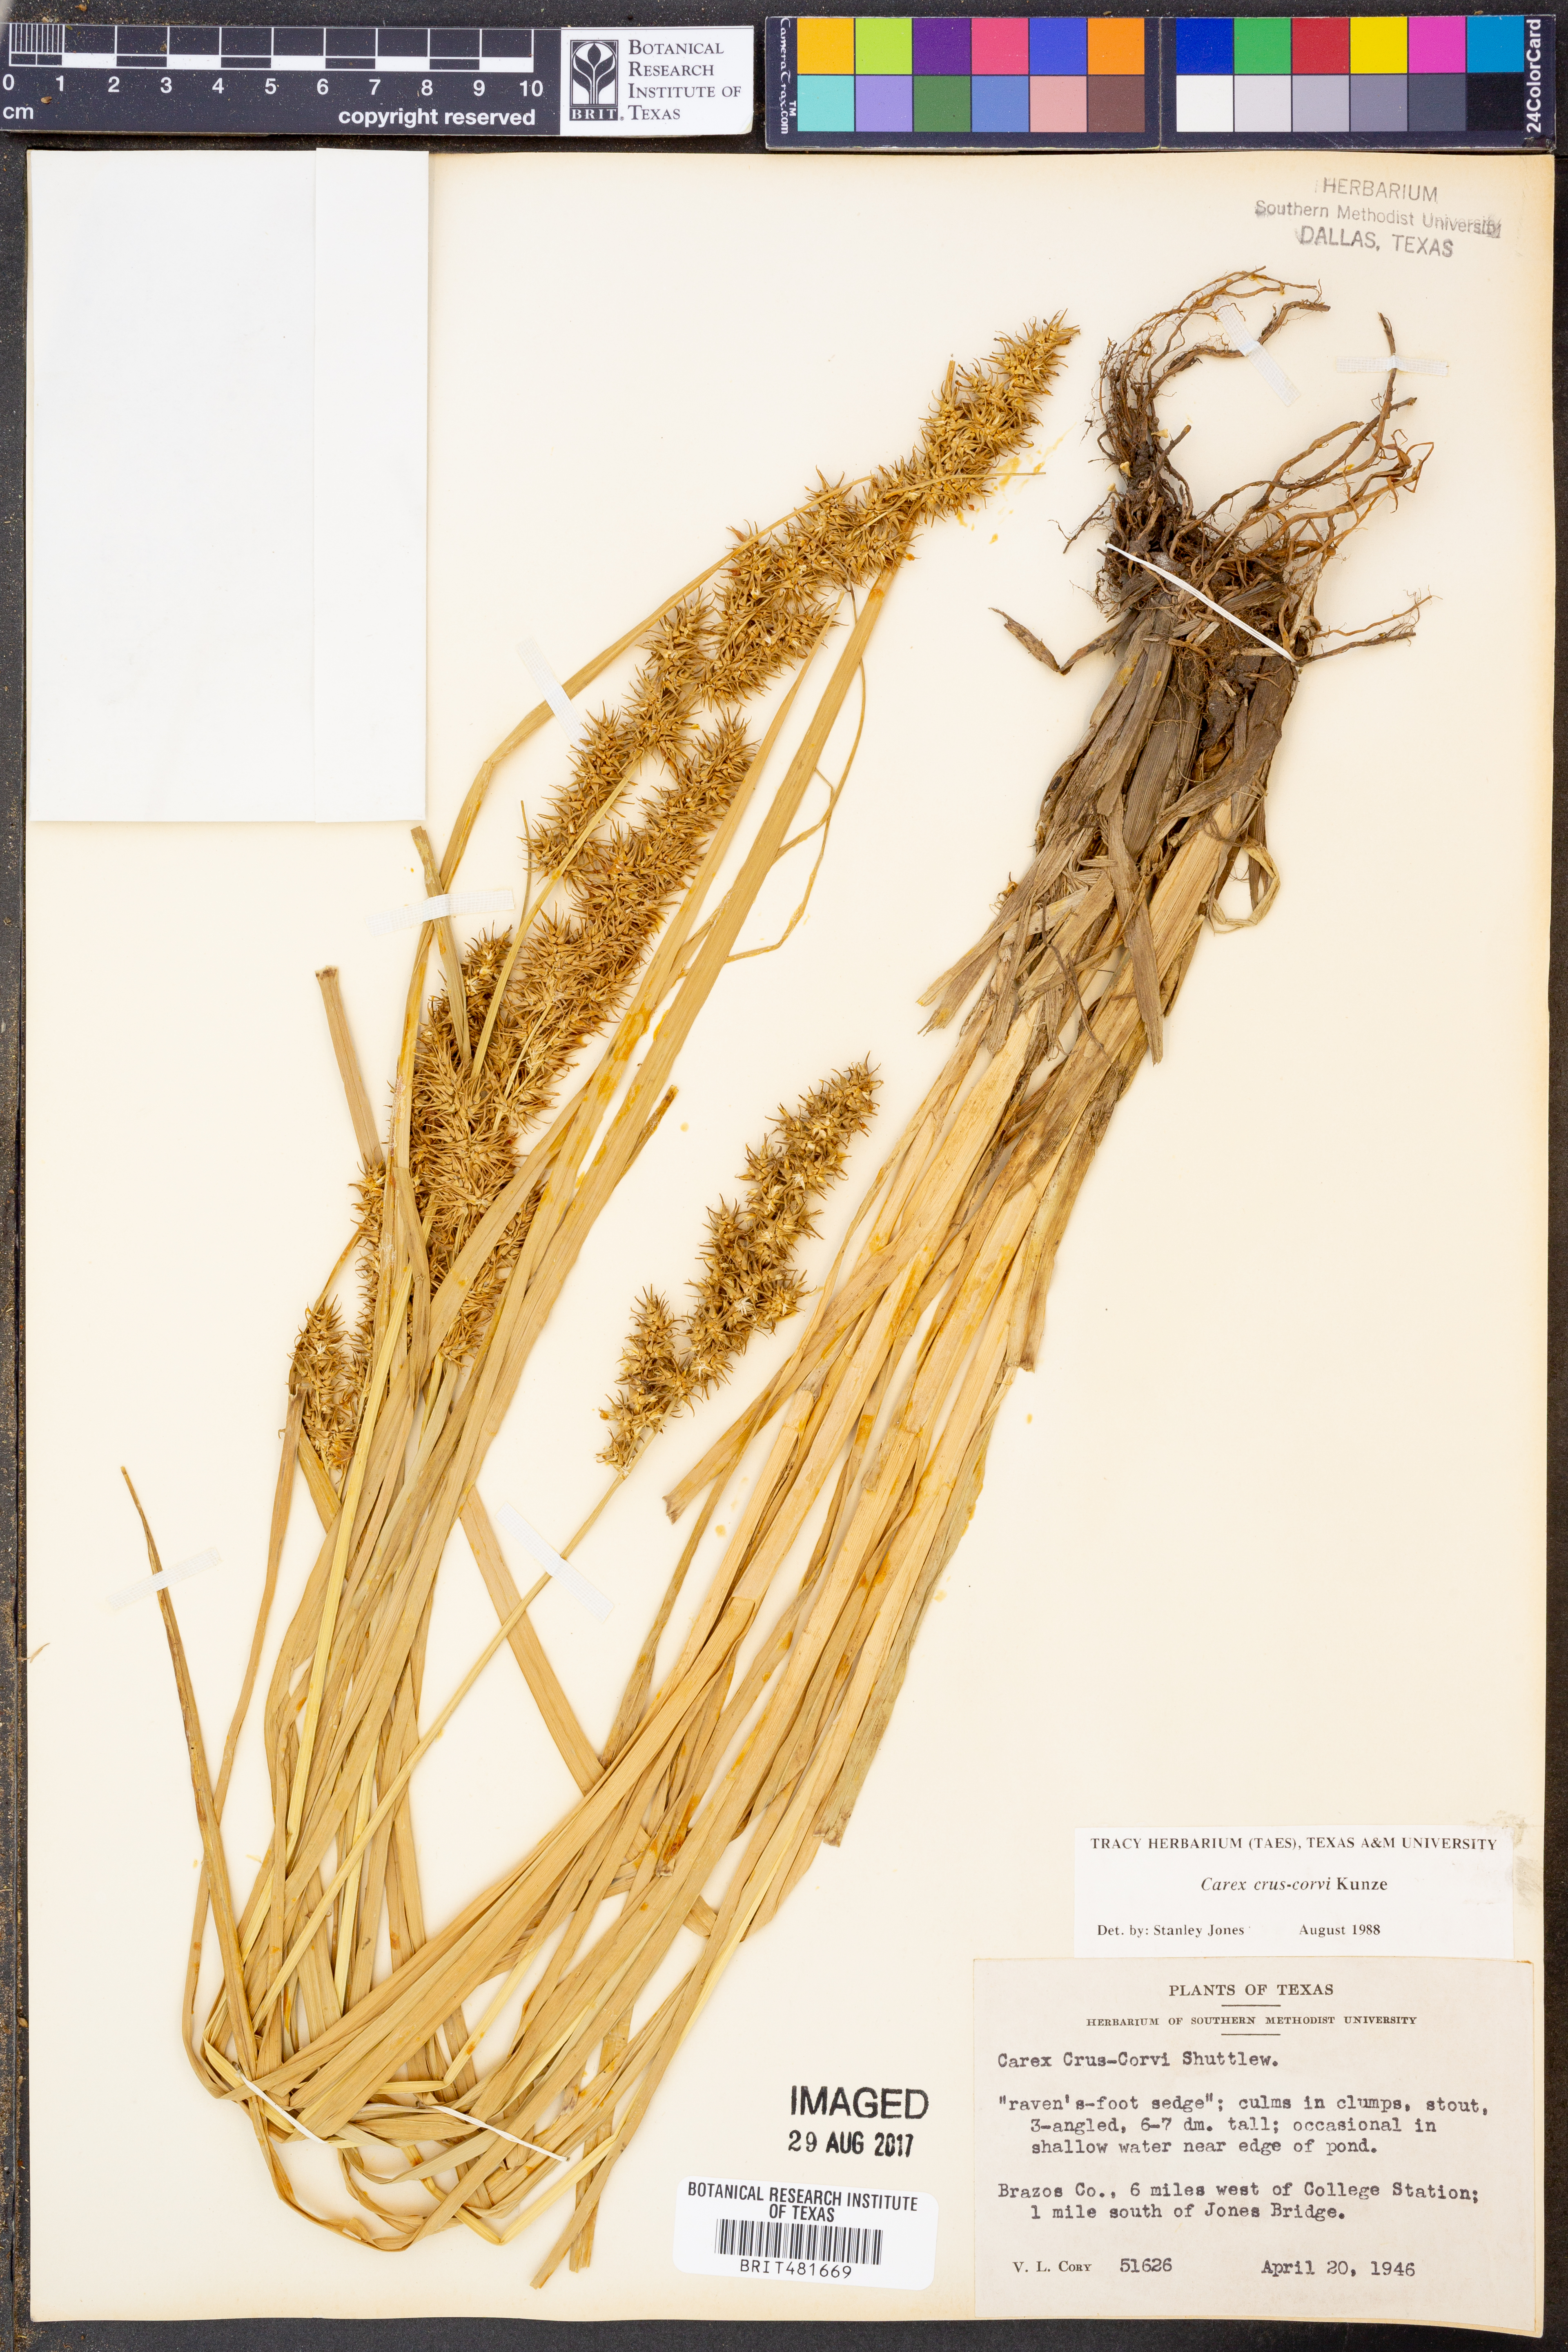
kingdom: Plantae
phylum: Tracheophyta
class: Liliopsida
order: Poales
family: Cyperaceae
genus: Carex
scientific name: Carex crus-corvi
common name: Crow-spur sedge
